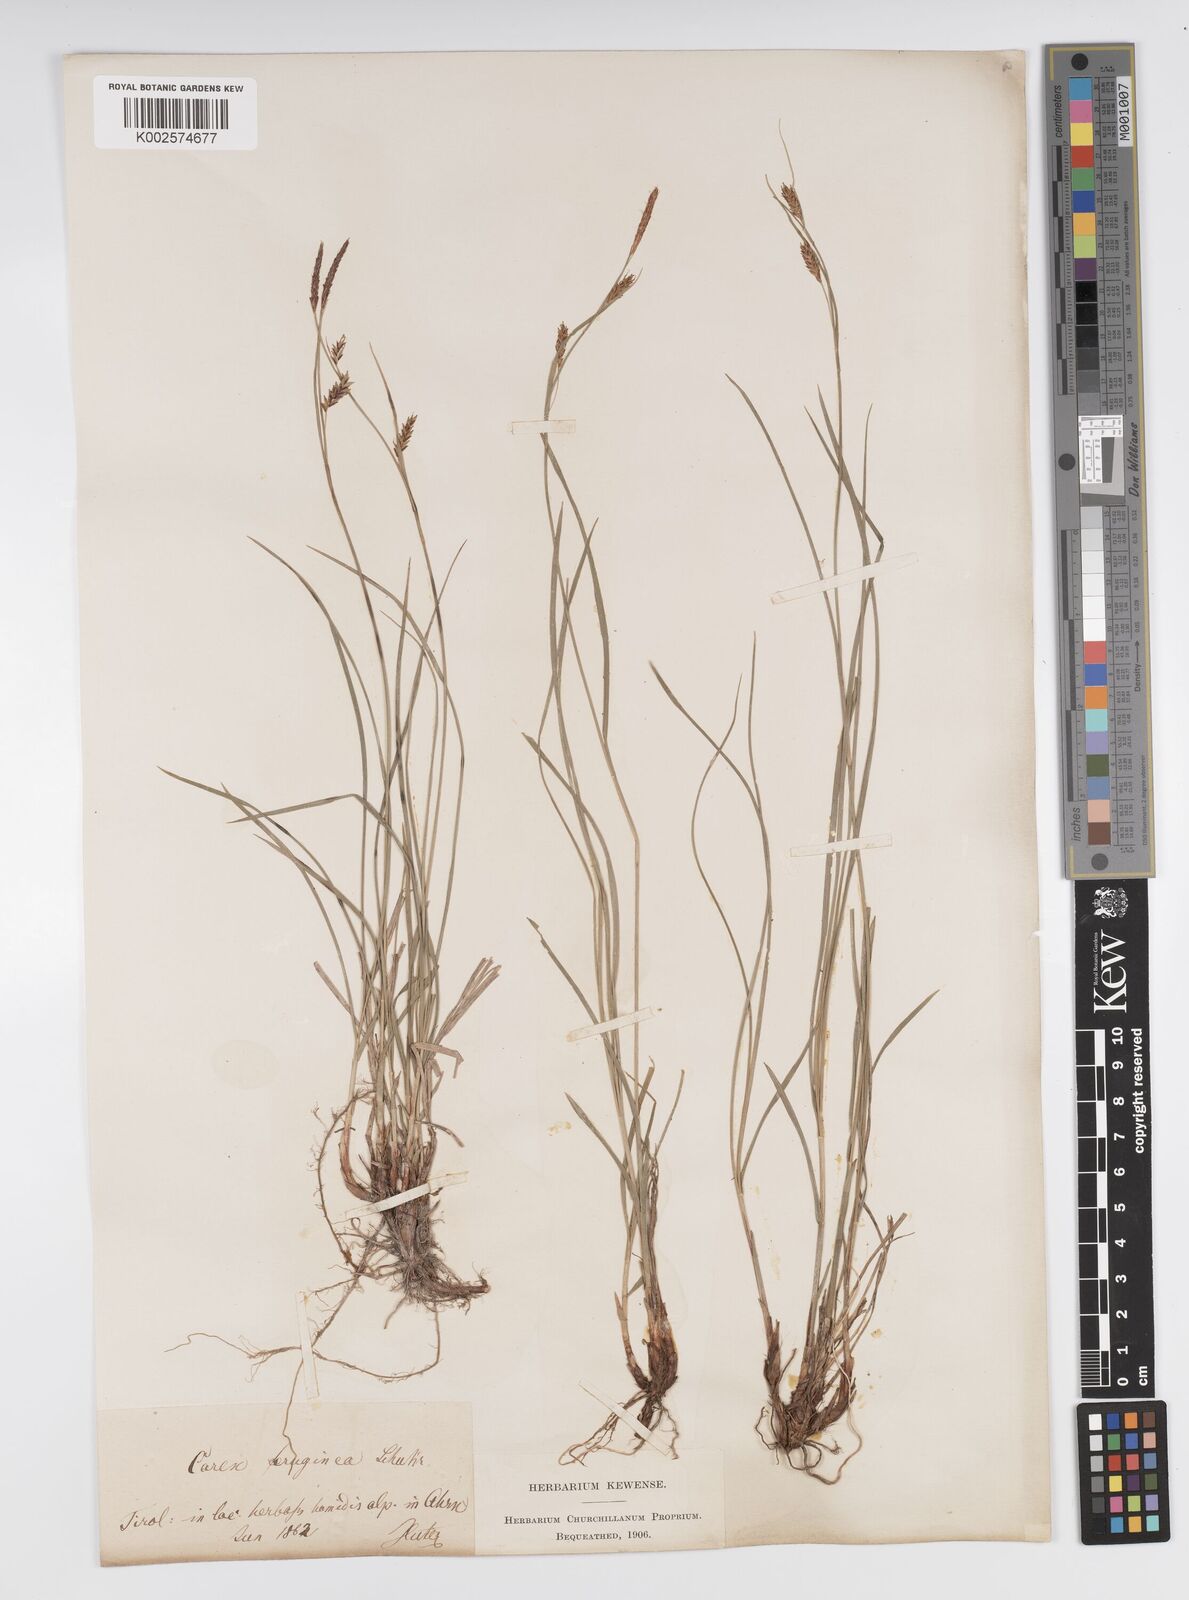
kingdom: Plantae
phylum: Tracheophyta
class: Liliopsida
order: Poales
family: Cyperaceae
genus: Carex
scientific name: Carex ferruginea
